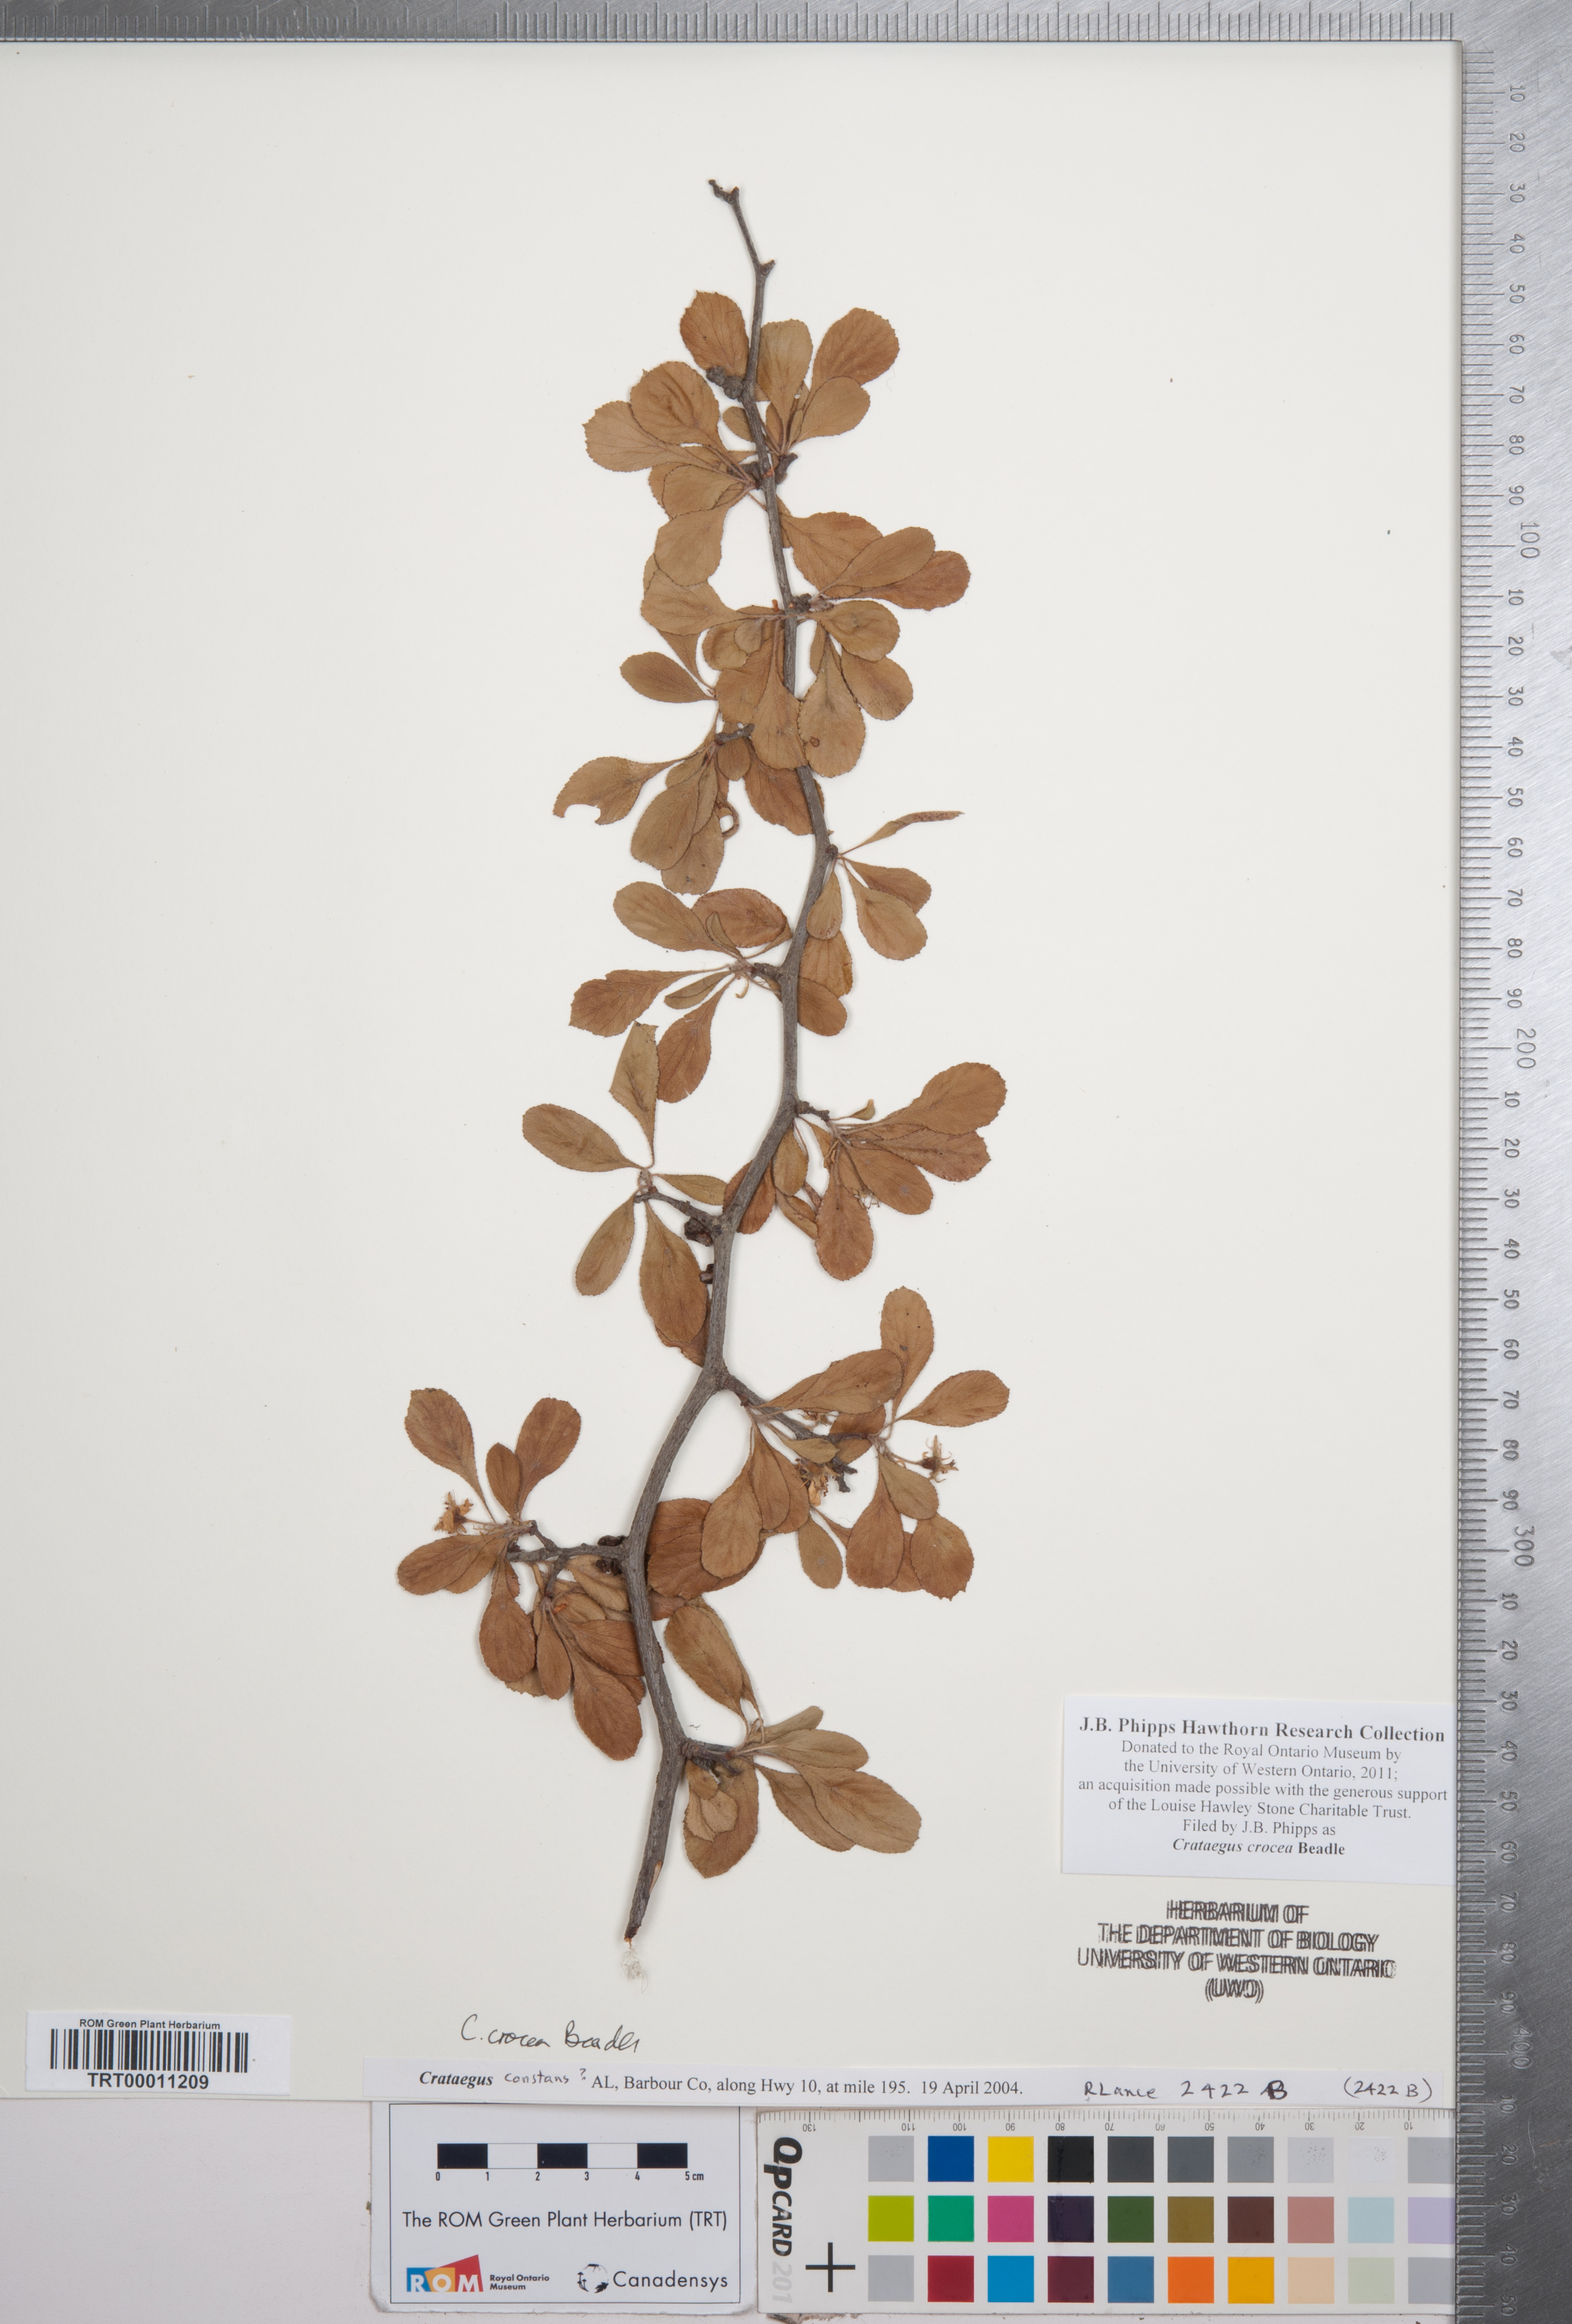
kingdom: Plantae
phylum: Tracheophyta
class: Magnoliopsida
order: Rosales
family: Rosaceae
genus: Crataegus
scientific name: Crataegus lassa
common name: Florida hawthorn
